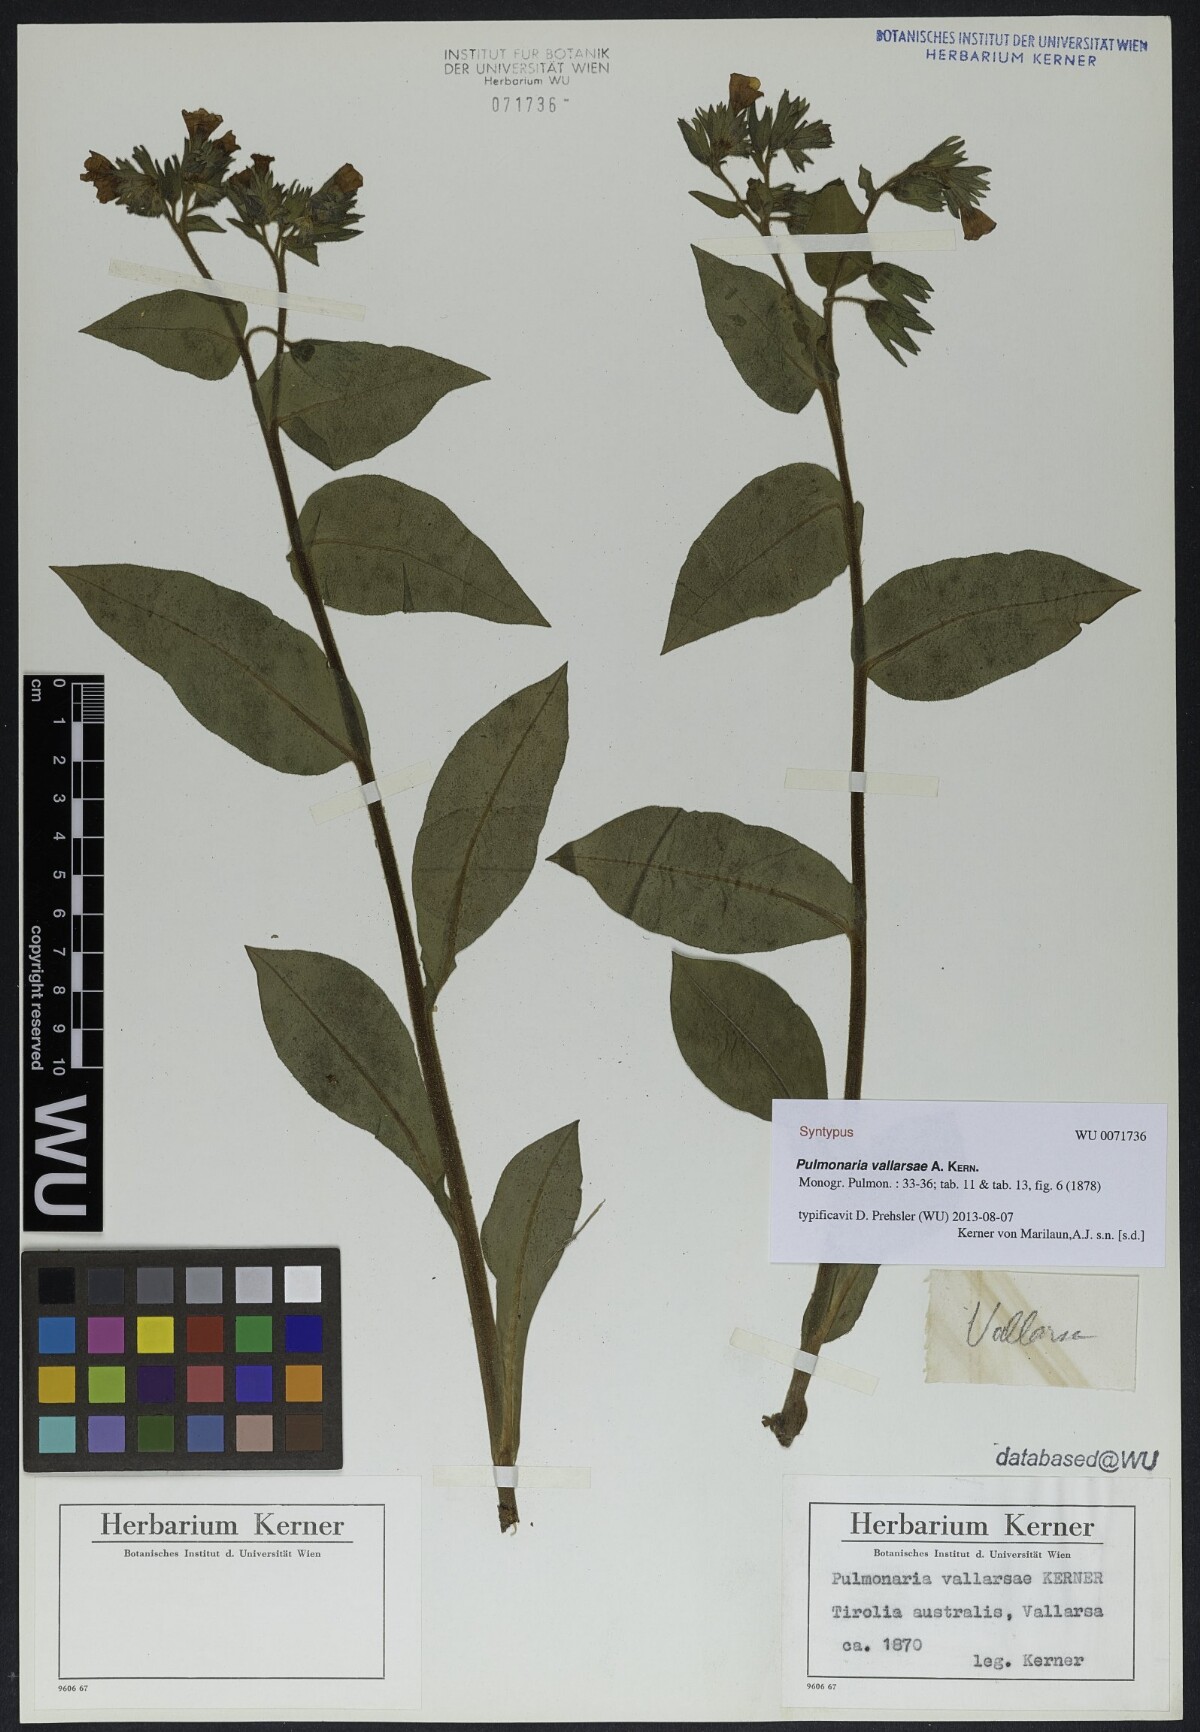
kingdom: Plantae
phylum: Tracheophyta
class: Magnoliopsida
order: Boraginales
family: Boraginaceae
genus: Pulmonaria
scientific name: Pulmonaria hirta
